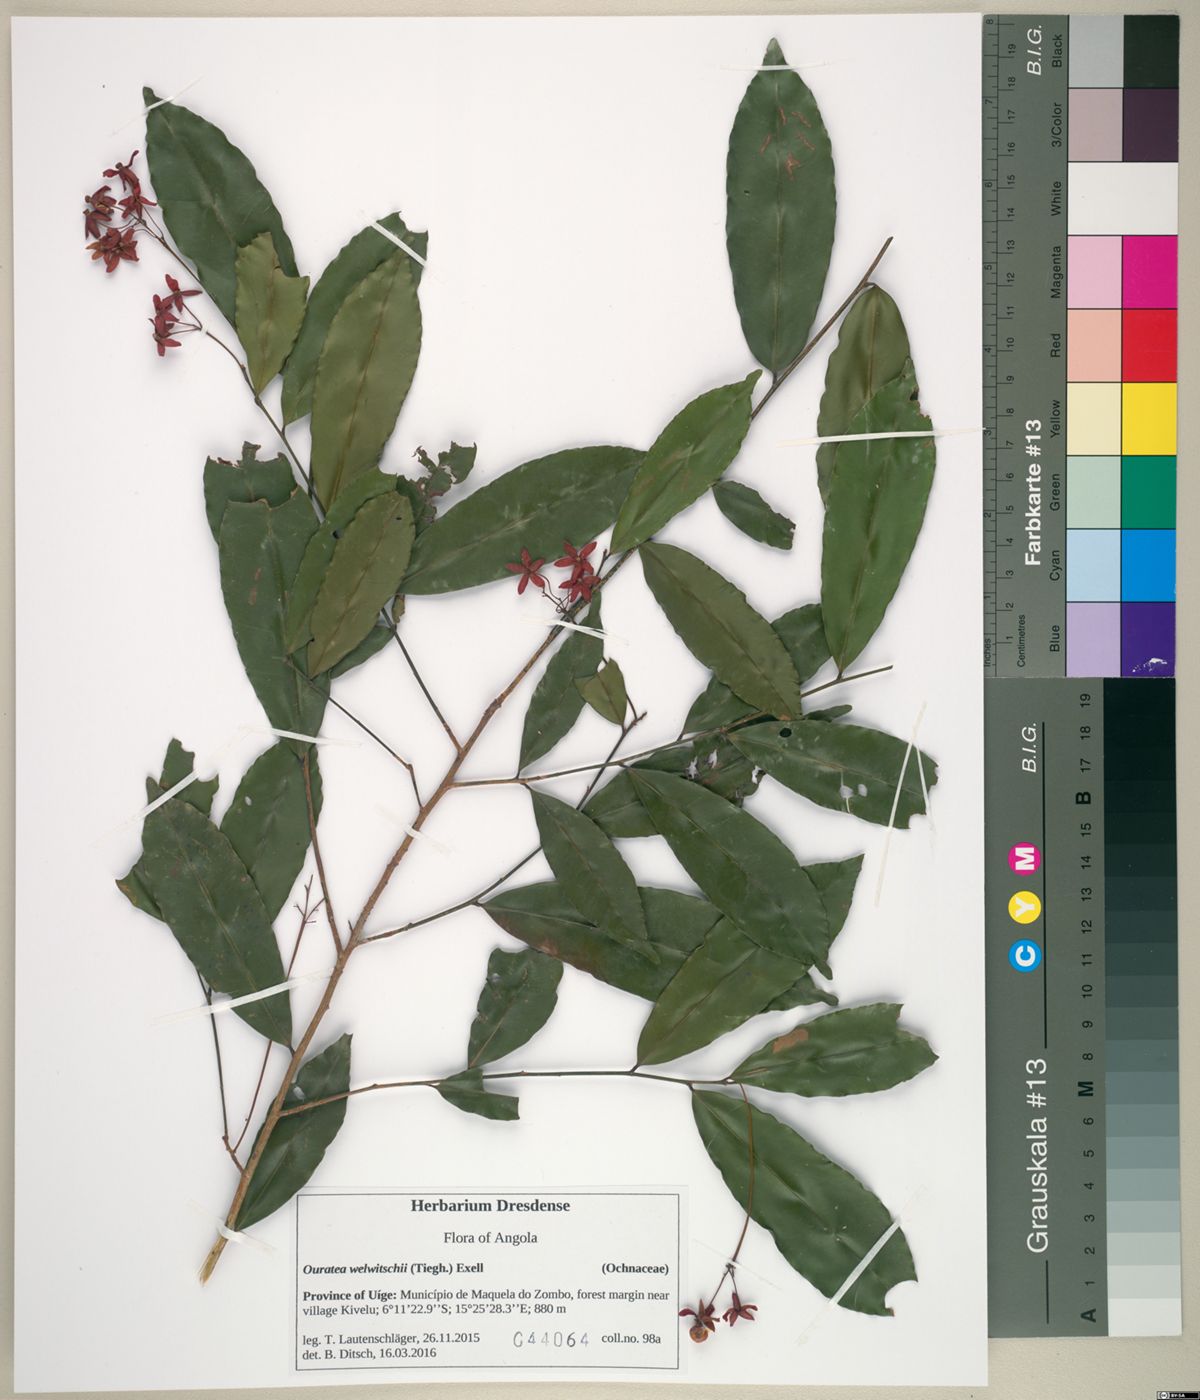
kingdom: Plantae
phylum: Tracheophyta
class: Magnoliopsida
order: Malpighiales
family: Ochnaceae
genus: Rhabdophyllum
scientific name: Rhabdophyllum welwitschii
